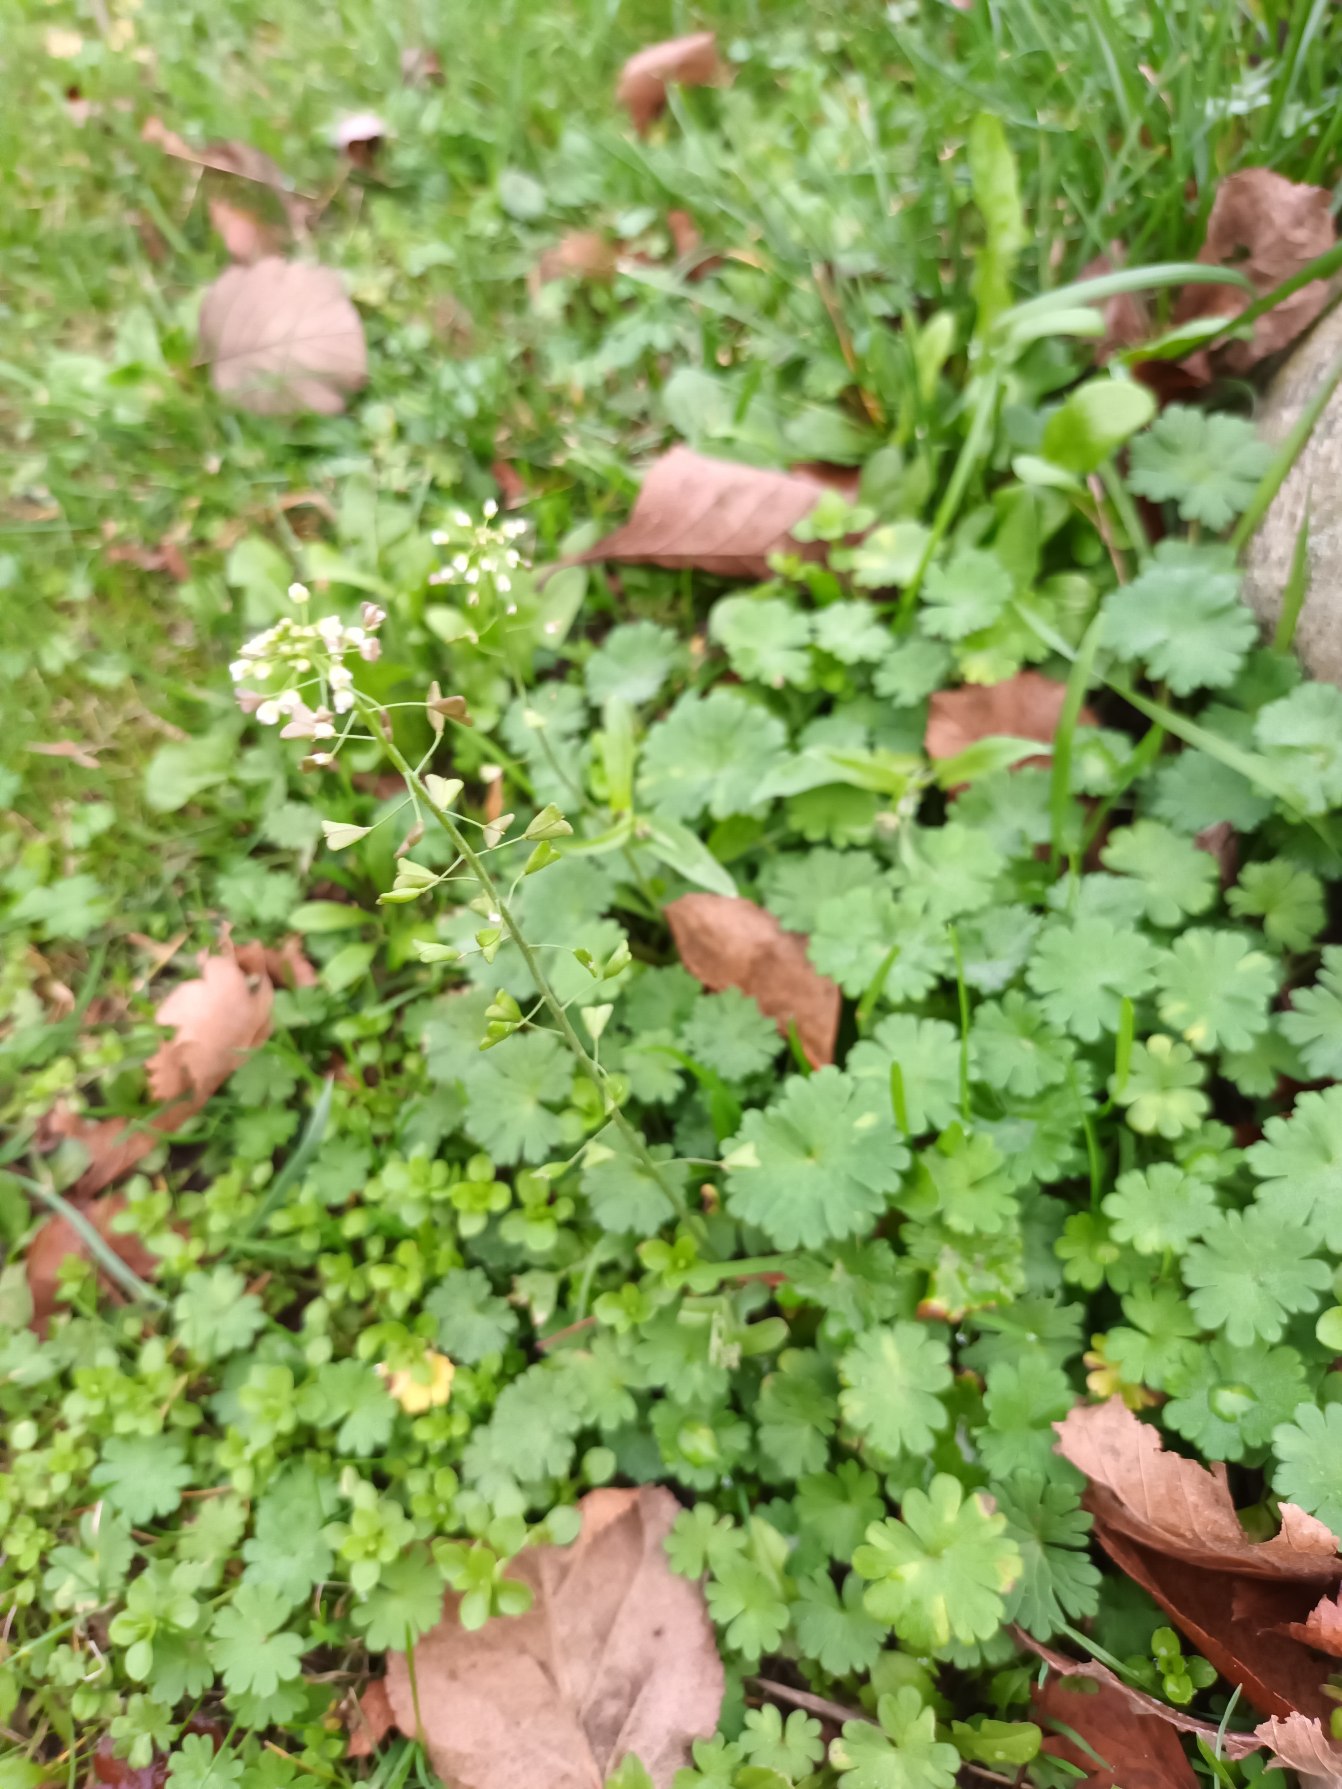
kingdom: Plantae
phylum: Tracheophyta
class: Magnoliopsida
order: Brassicales
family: Brassicaceae
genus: Capsella
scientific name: Capsella bursa-pastoris
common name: Hyrdetaske
